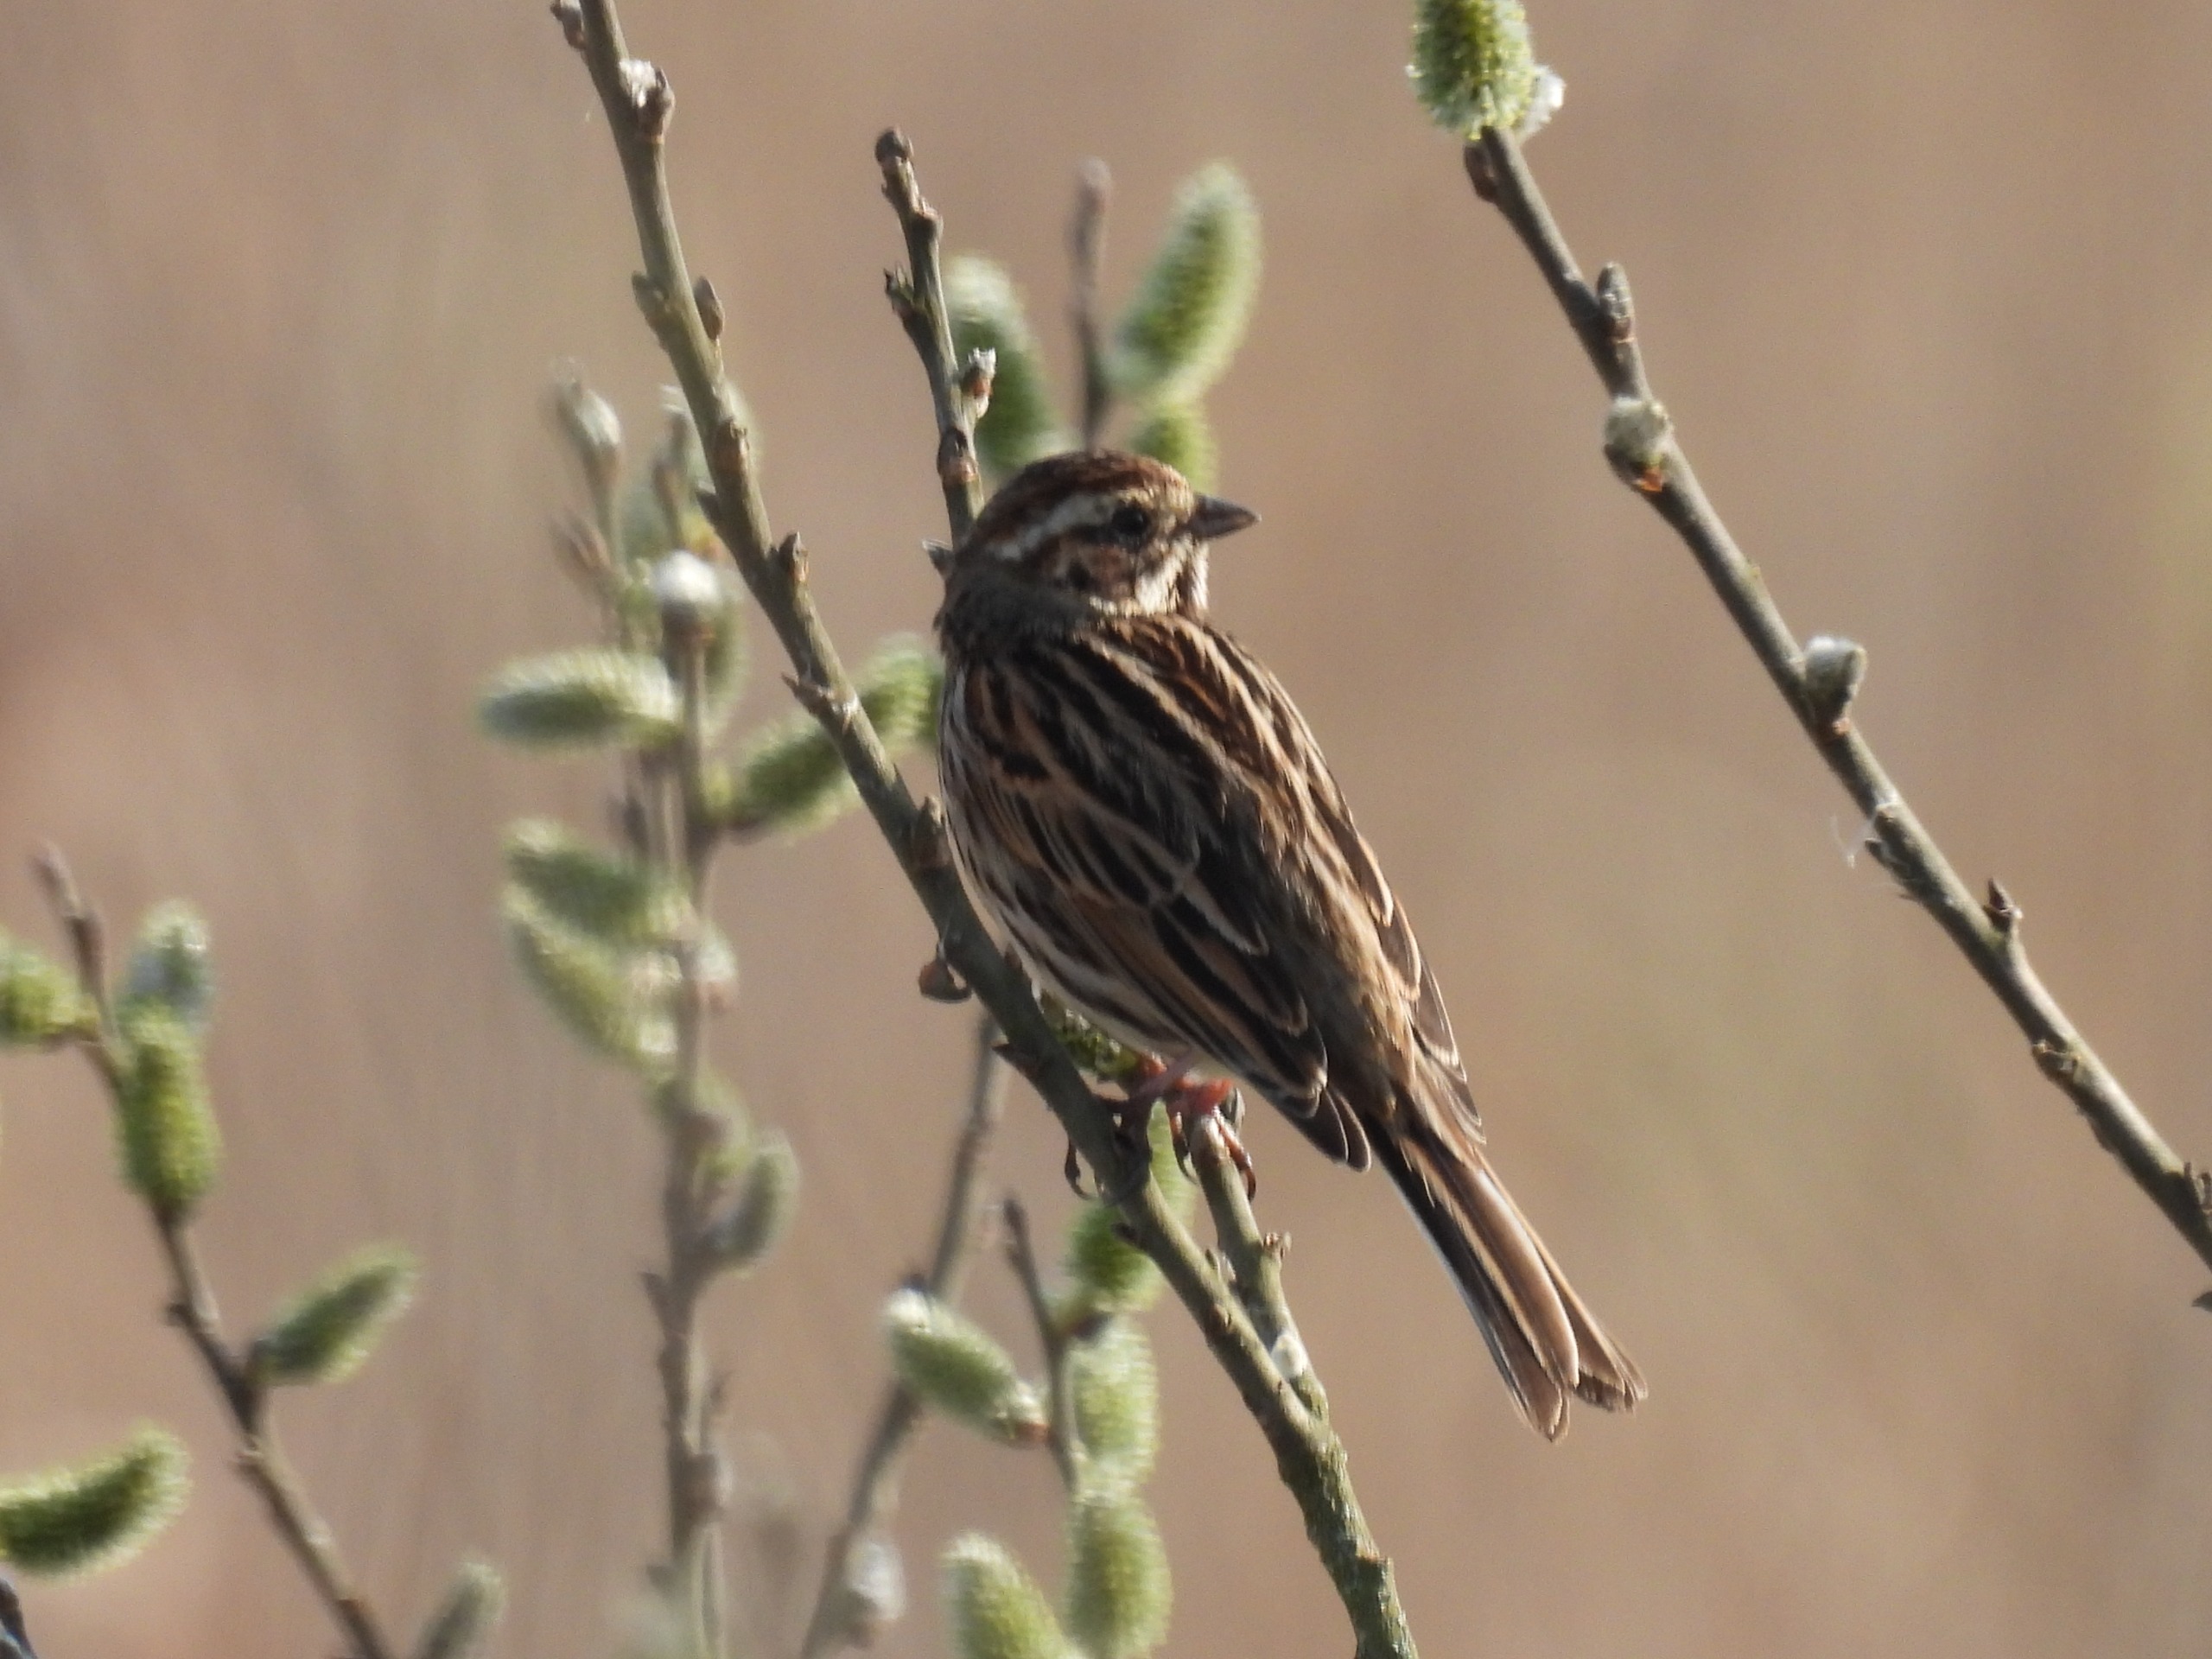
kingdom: Animalia
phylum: Chordata
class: Aves
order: Passeriformes
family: Emberizidae
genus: Emberiza
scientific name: Emberiza schoeniclus
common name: Rørspurv
